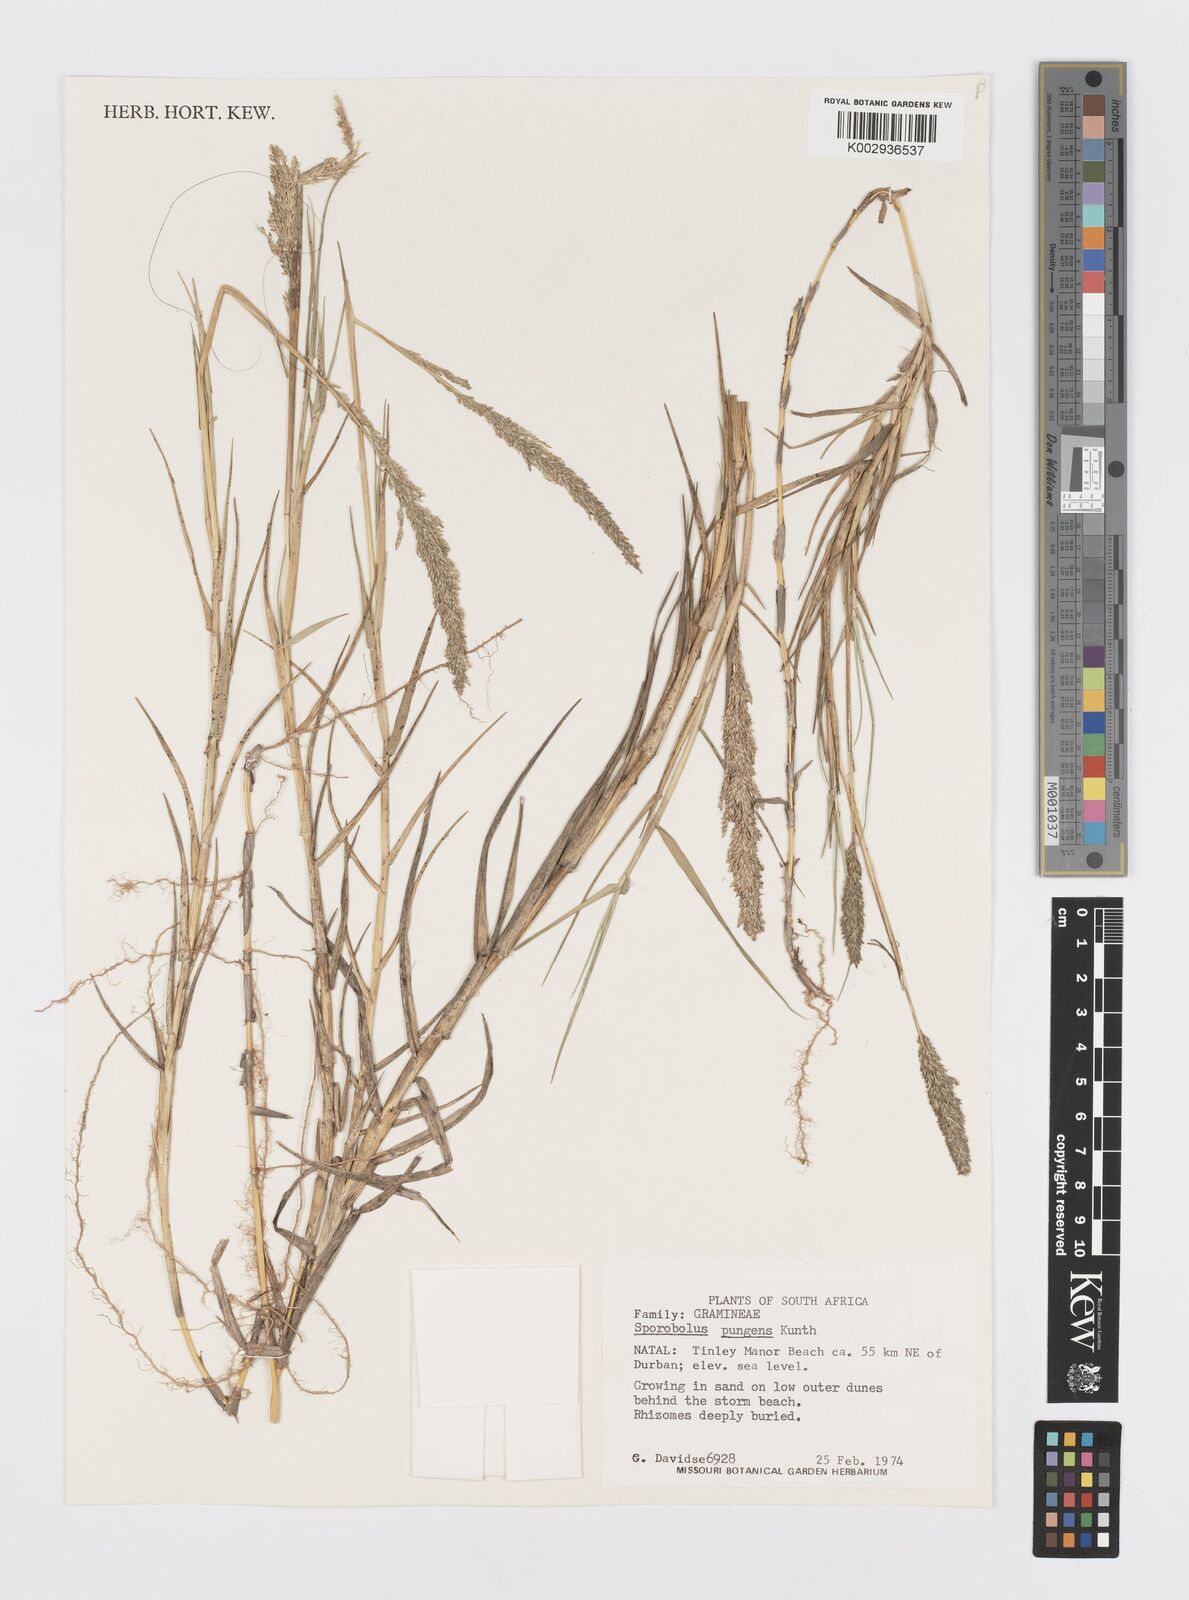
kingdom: Plantae
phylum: Tracheophyta
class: Liliopsida
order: Poales
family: Poaceae
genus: Sporobolus
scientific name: Sporobolus virginicus
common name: Beach dropseed
